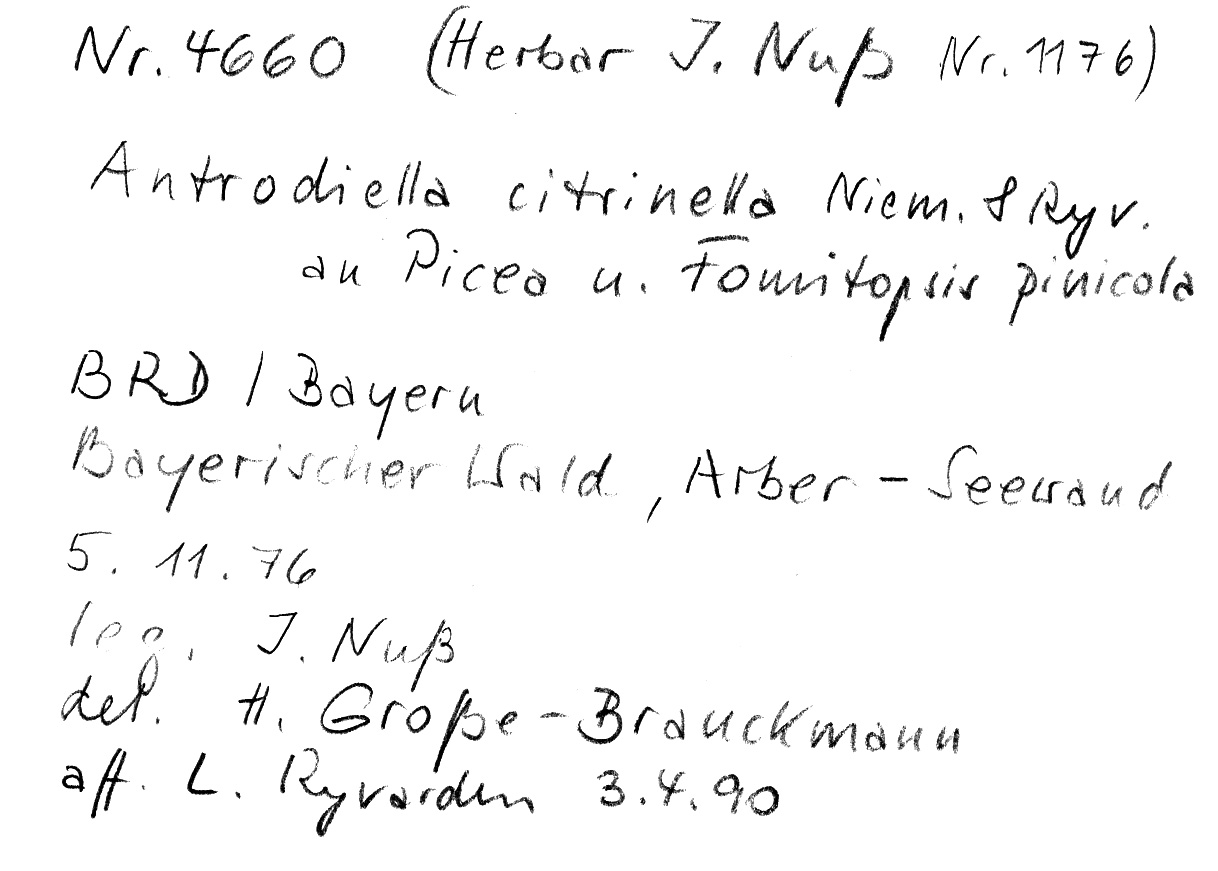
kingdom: Fungi
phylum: Basidiomycota
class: Agaricomycetes
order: Polyporales
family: Steccherinaceae
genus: Flaviporus
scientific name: Flaviporus citrinellus
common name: Lemon-colored antrodiella
